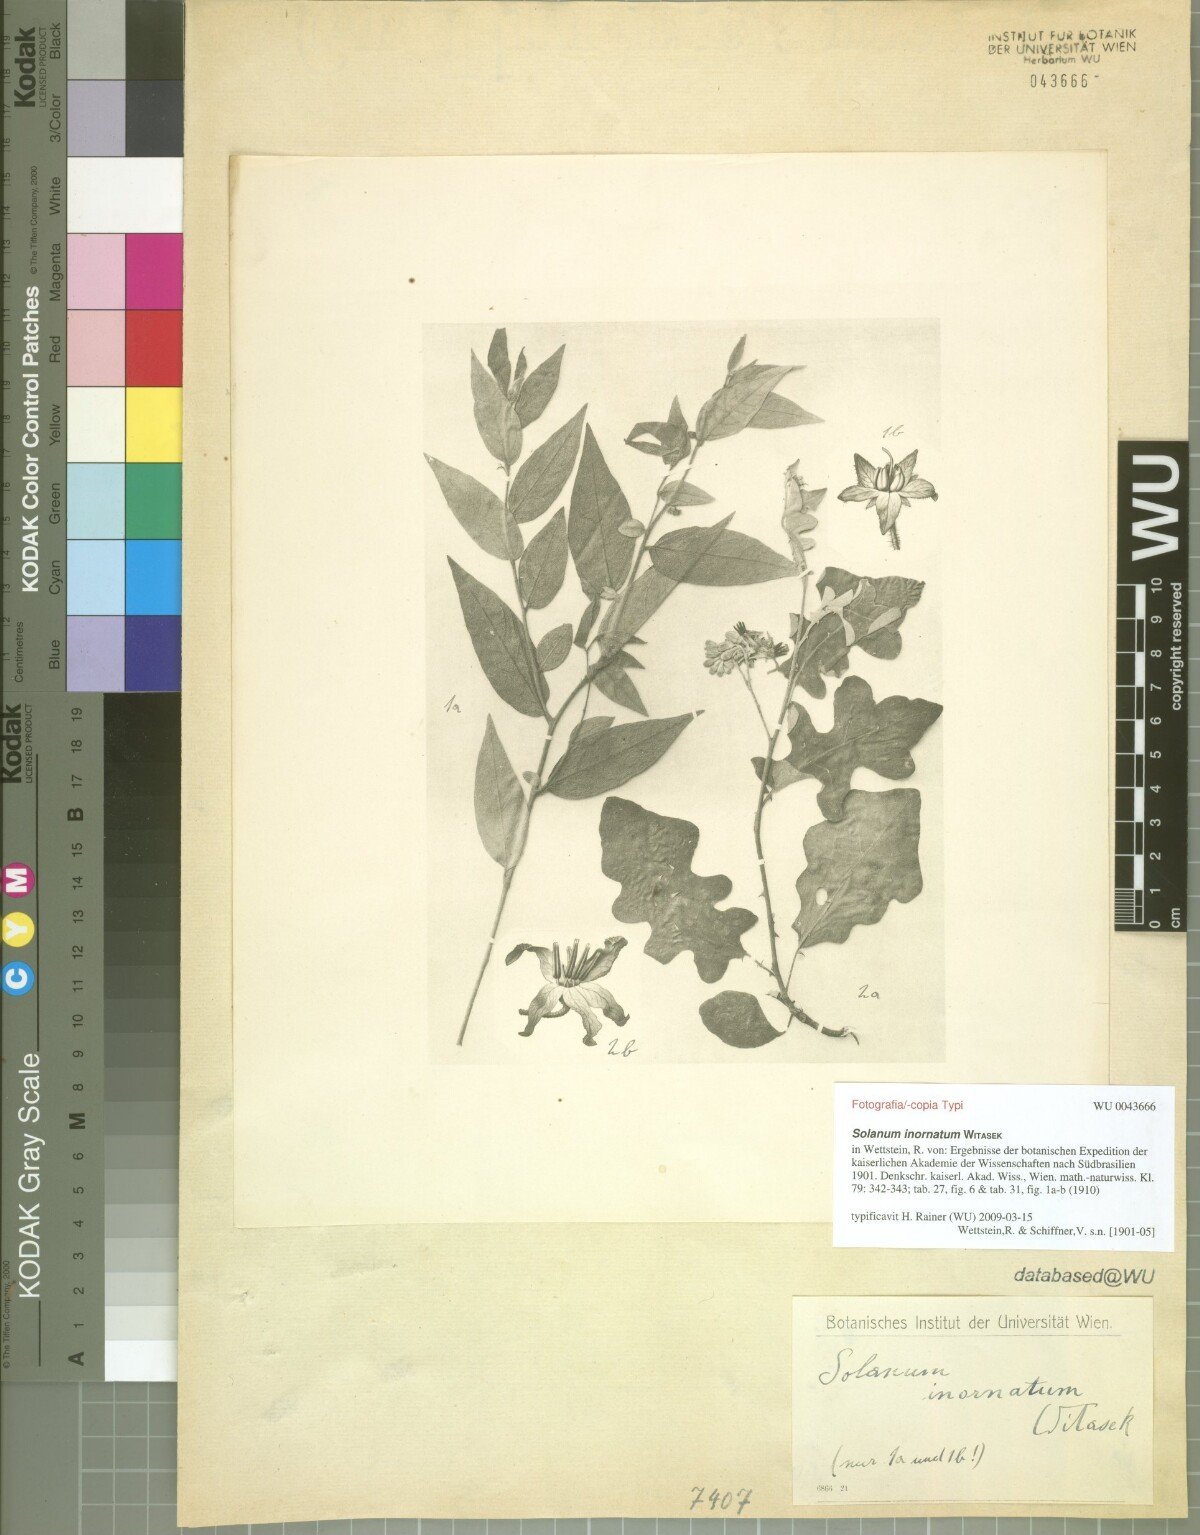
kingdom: Plantae
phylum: Tracheophyta
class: Magnoliopsida
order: Solanales
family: Solanaceae
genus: Solanum
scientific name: Solanum inornatum
